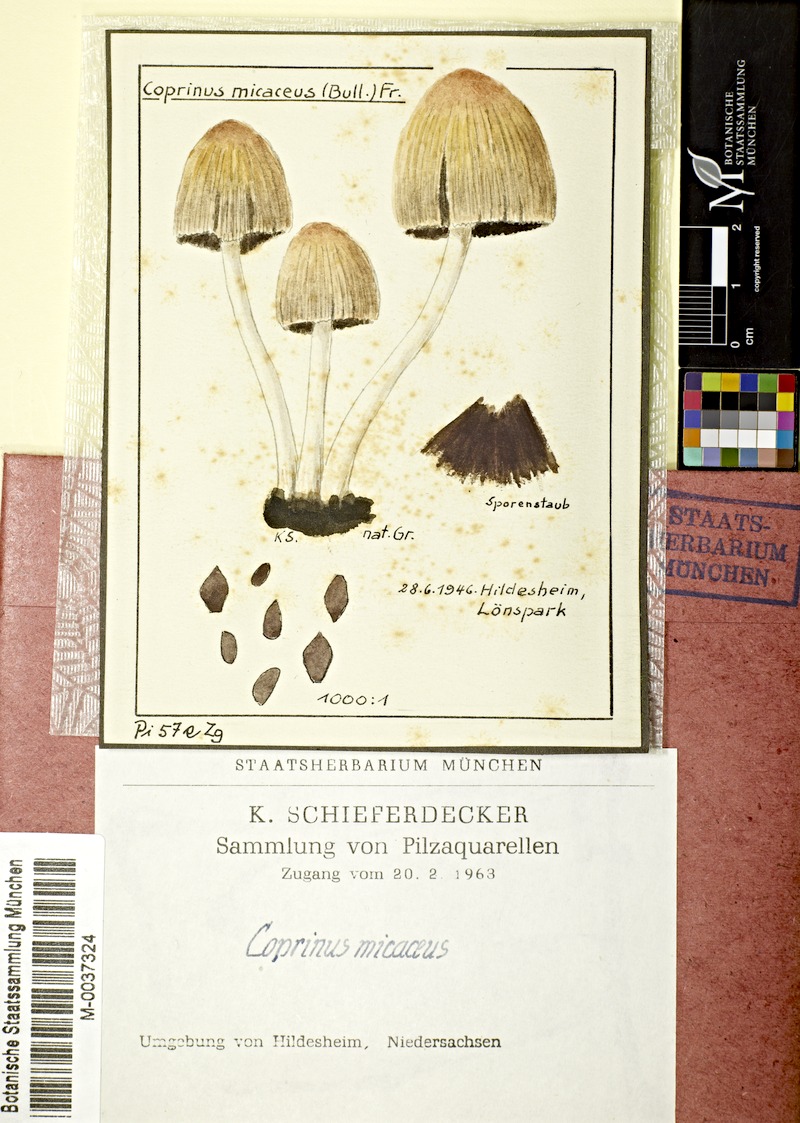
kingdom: Fungi
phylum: Basidiomycota
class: Agaricomycetes
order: Agaricales
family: Psathyrellaceae
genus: Coprinellus
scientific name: Coprinellus micaceus
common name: Glistening ink-cap
